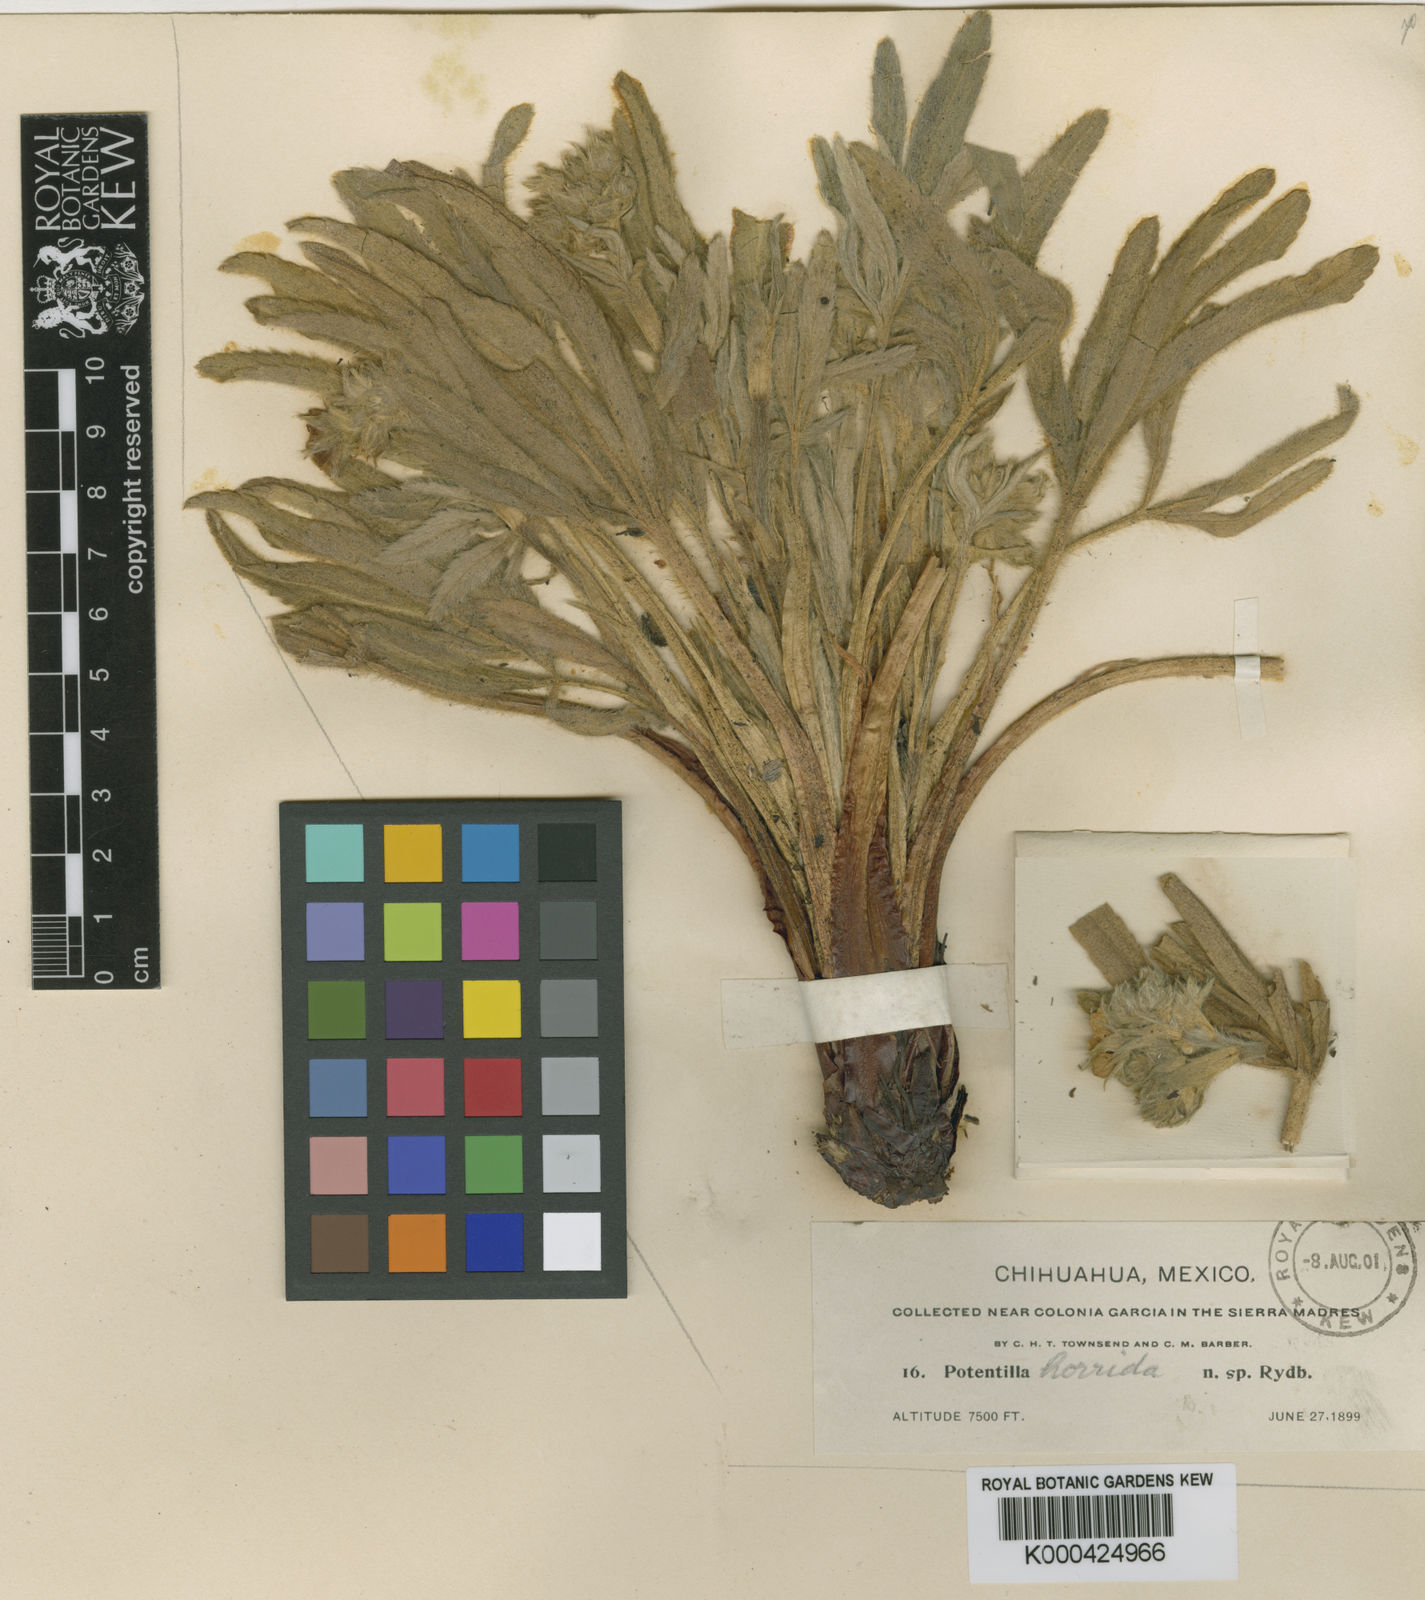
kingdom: Plantae
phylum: Tracheophyta
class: Magnoliopsida
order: Rosales
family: Rosaceae
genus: Potentilla
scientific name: Potentilla horrida
